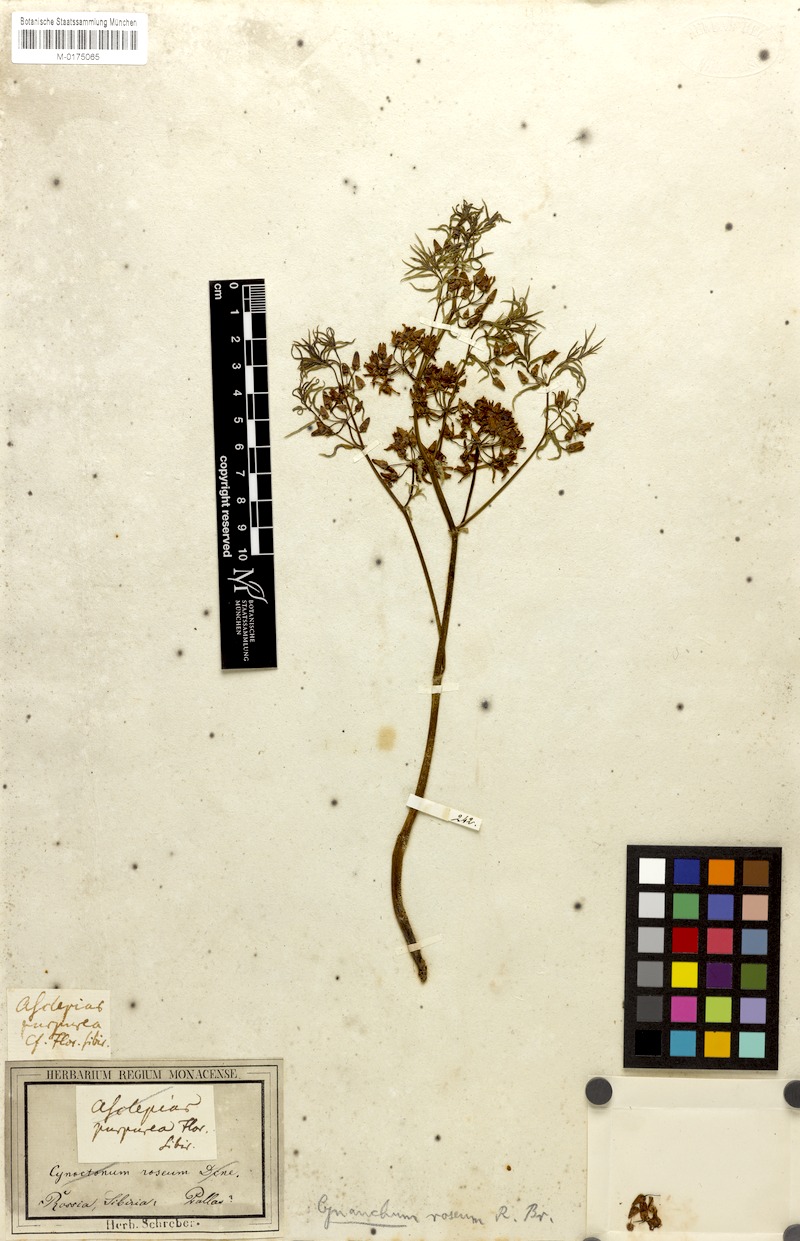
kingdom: Plantae
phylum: Tracheophyta
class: Magnoliopsida
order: Gentianales
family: Apocynaceae
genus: Vincetoxicum
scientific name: Vincetoxicum purpureum
